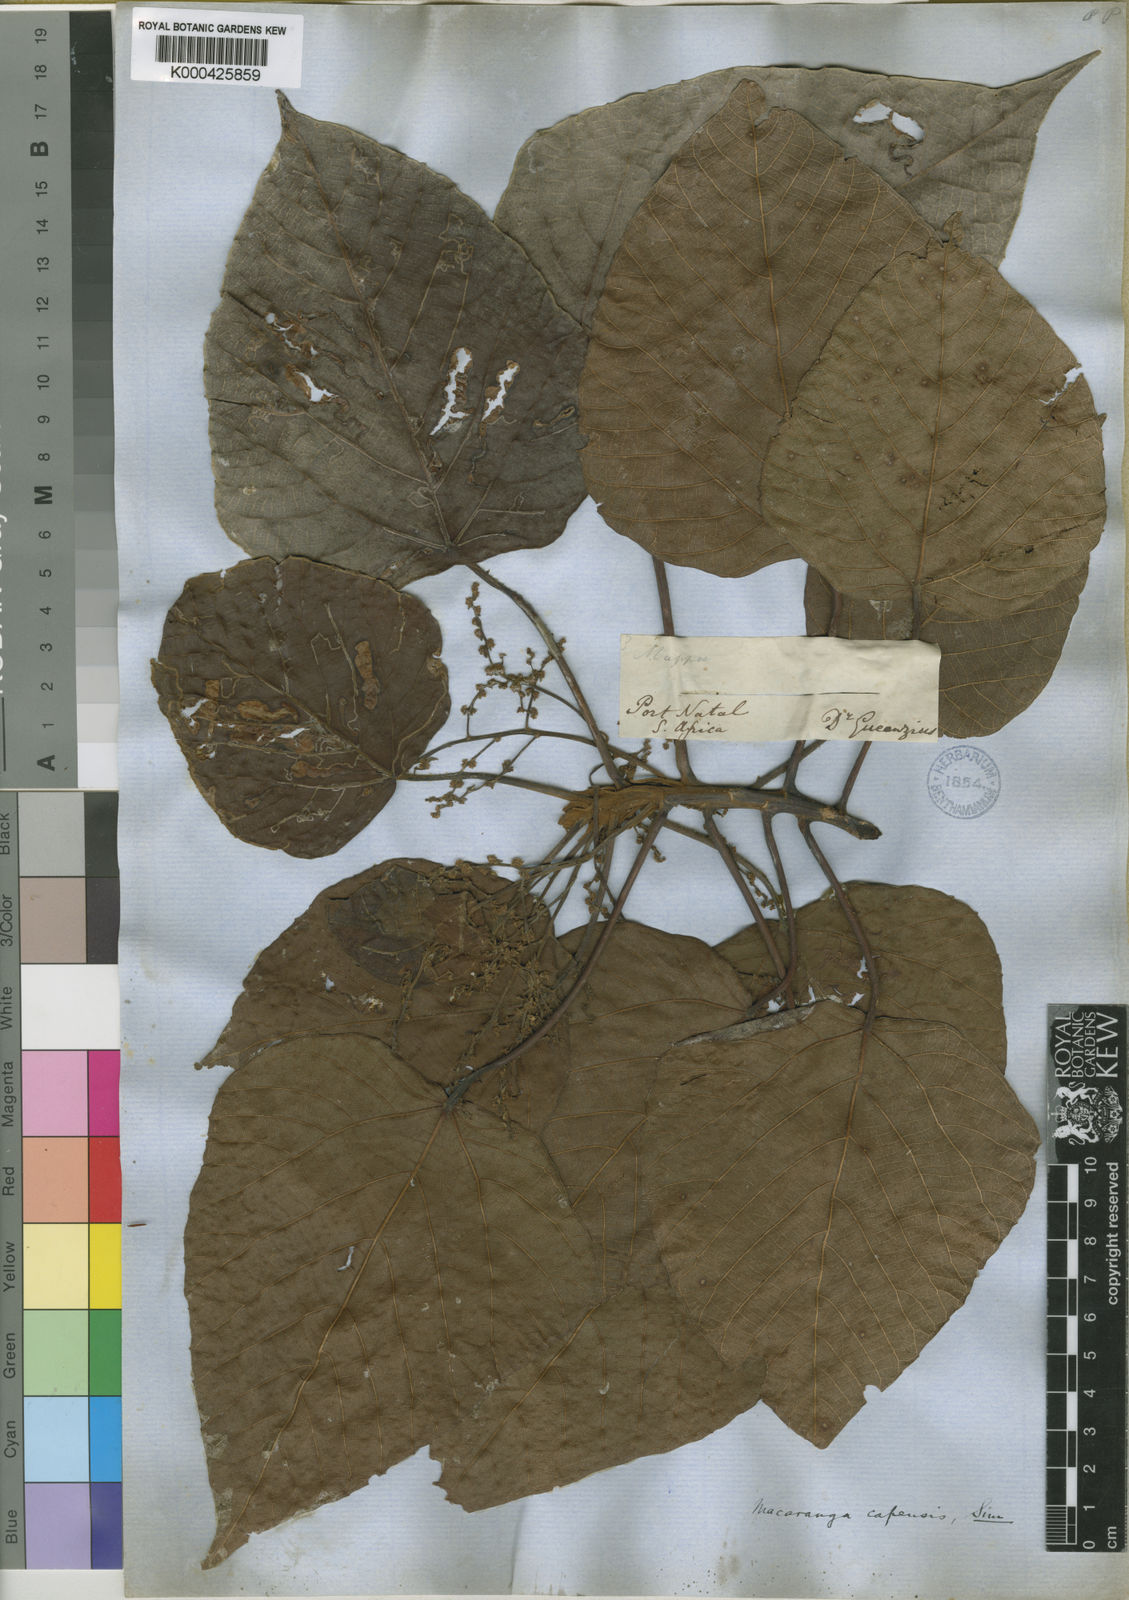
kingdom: Plantae
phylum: Tracheophyta
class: Magnoliopsida
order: Malpighiales
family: Euphorbiaceae
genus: Macaranga
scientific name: Macaranga capensis
